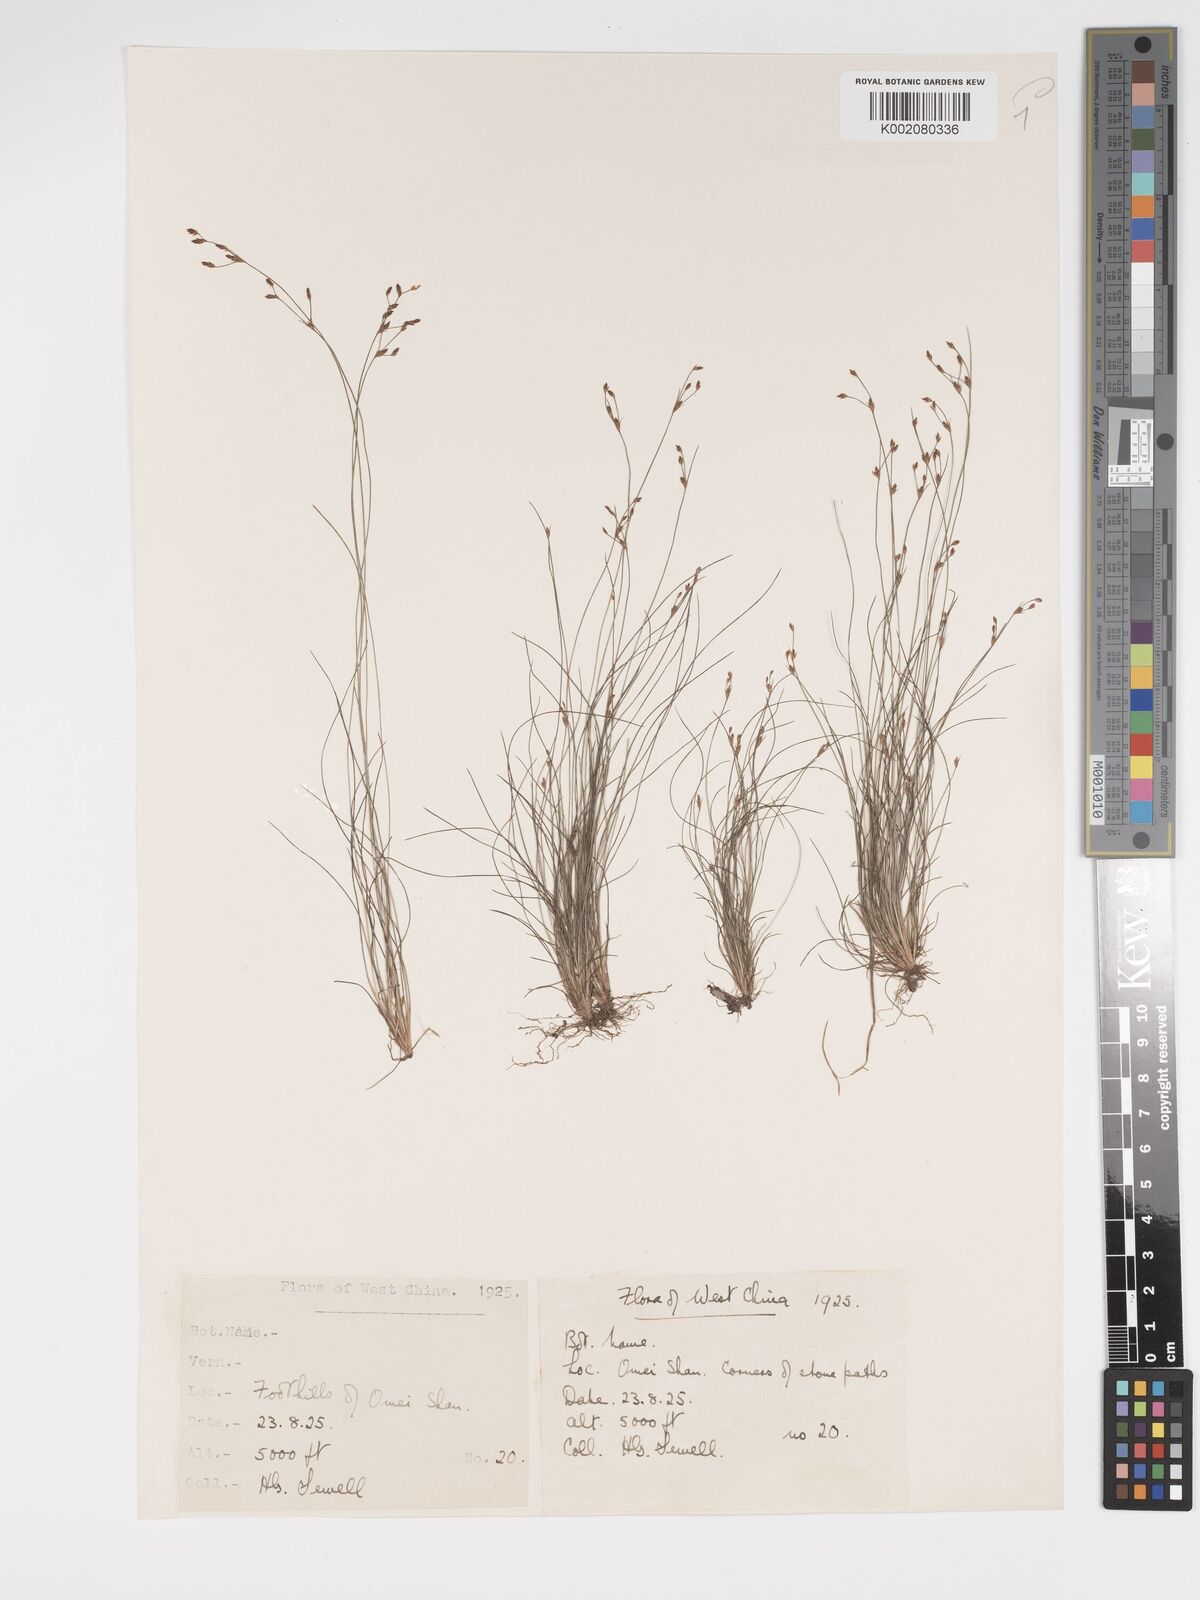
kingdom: Plantae
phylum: Tracheophyta
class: Liliopsida
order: Poales
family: Cyperaceae
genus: Bulbostylis
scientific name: Bulbostylis capillaris
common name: Densetuft hairsedge
